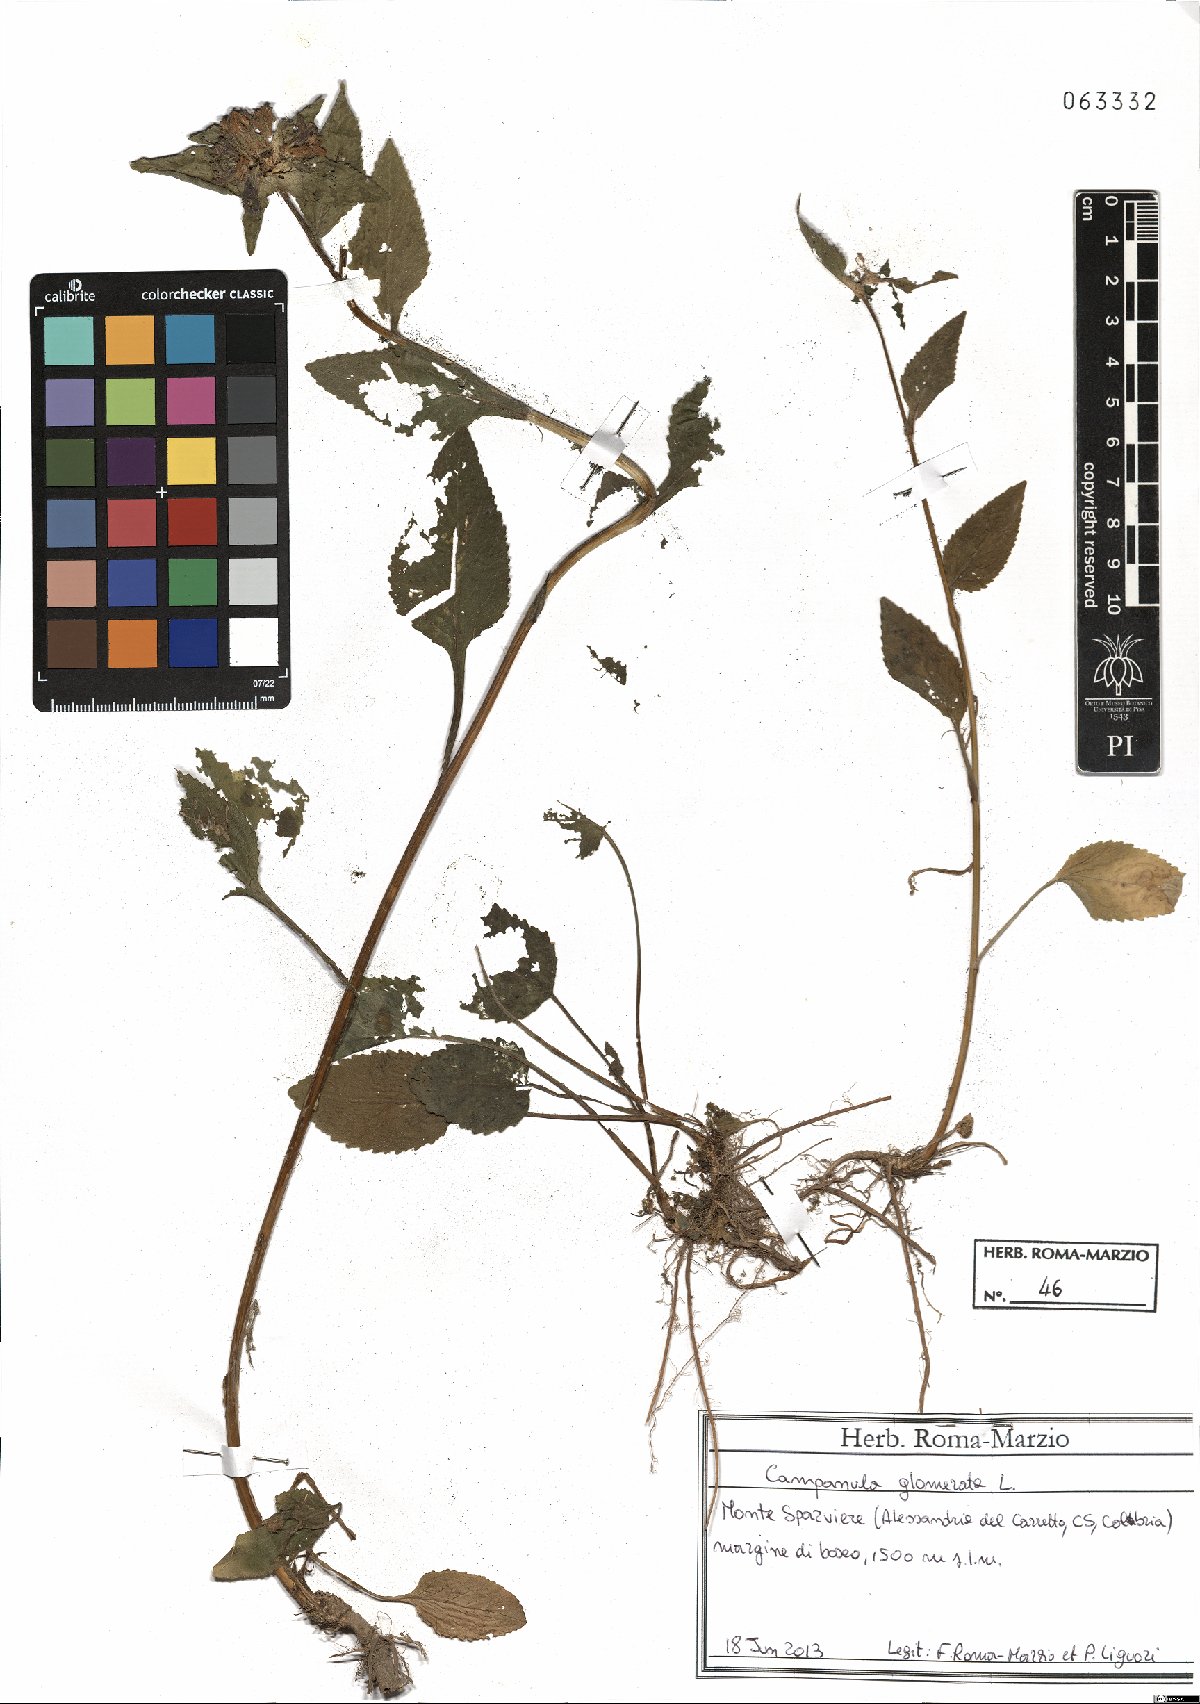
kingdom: Plantae
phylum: Tracheophyta
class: Magnoliopsida
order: Asterales
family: Campanulaceae
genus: Campanula
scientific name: Campanula glomerata
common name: Clustered bellflower
